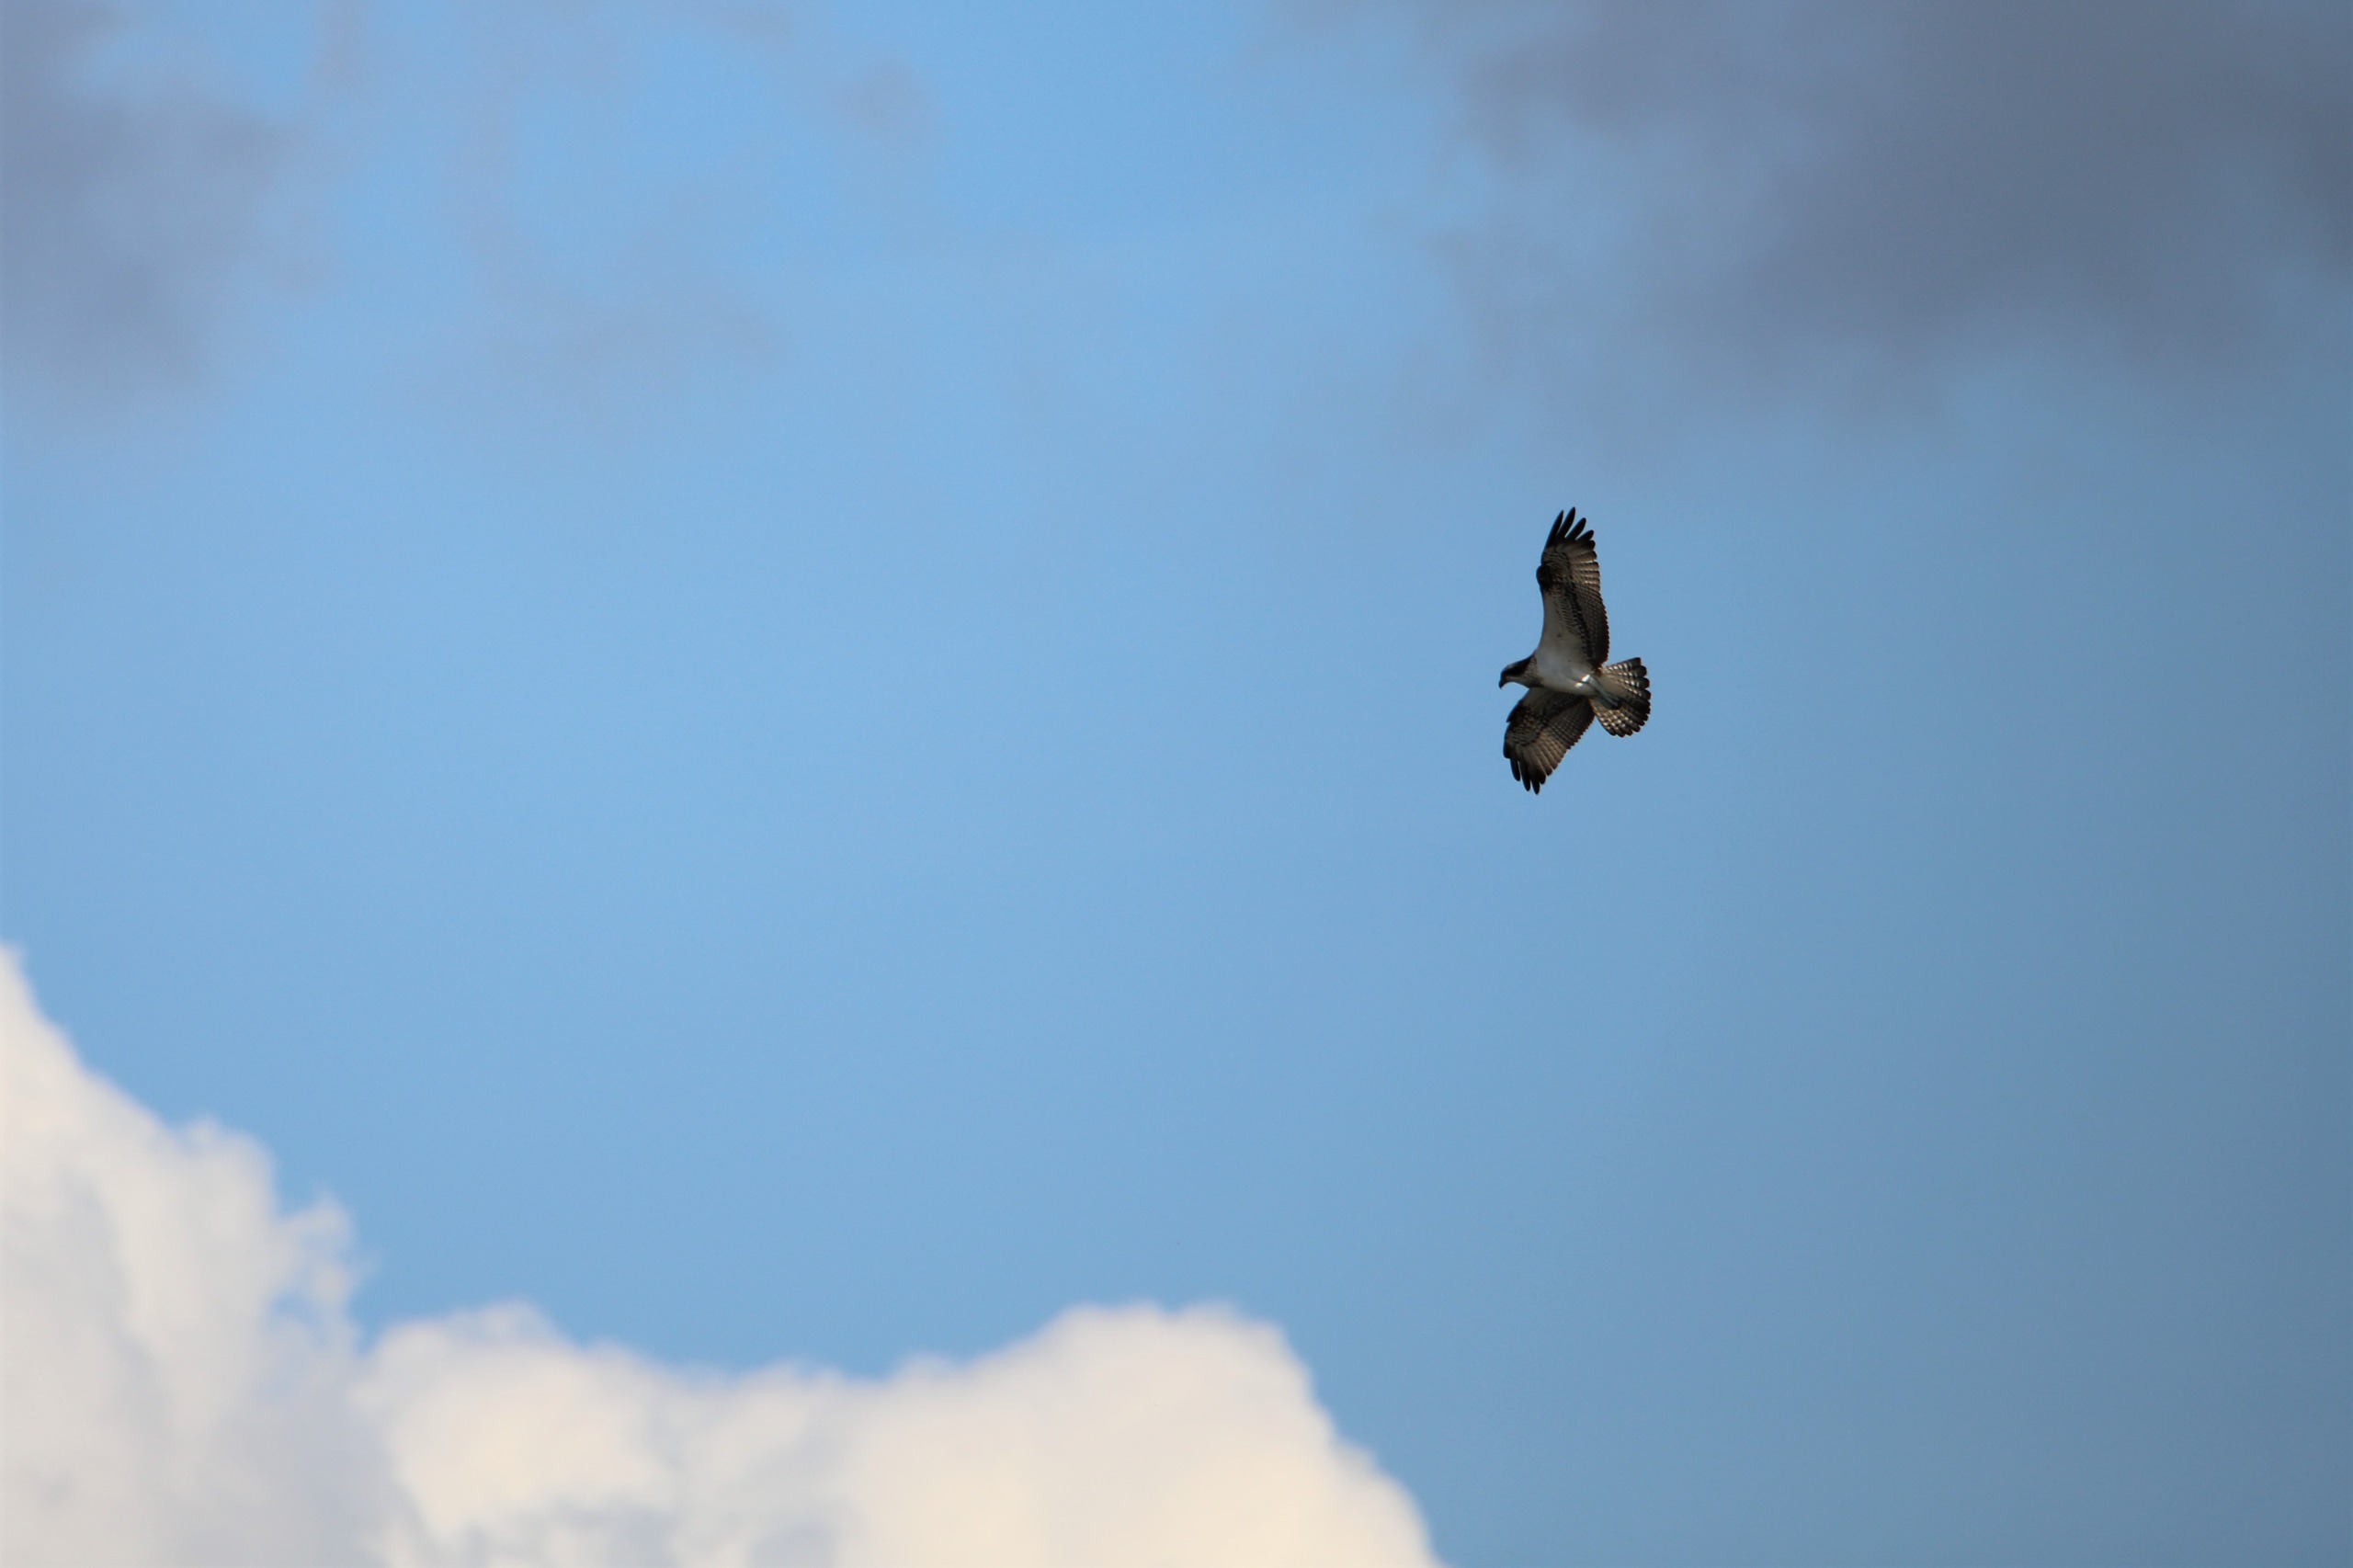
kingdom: Animalia
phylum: Chordata
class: Aves
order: Accipitriformes
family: Pandionidae
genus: Pandion
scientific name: Pandion haliaetus
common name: Fiskeørn
